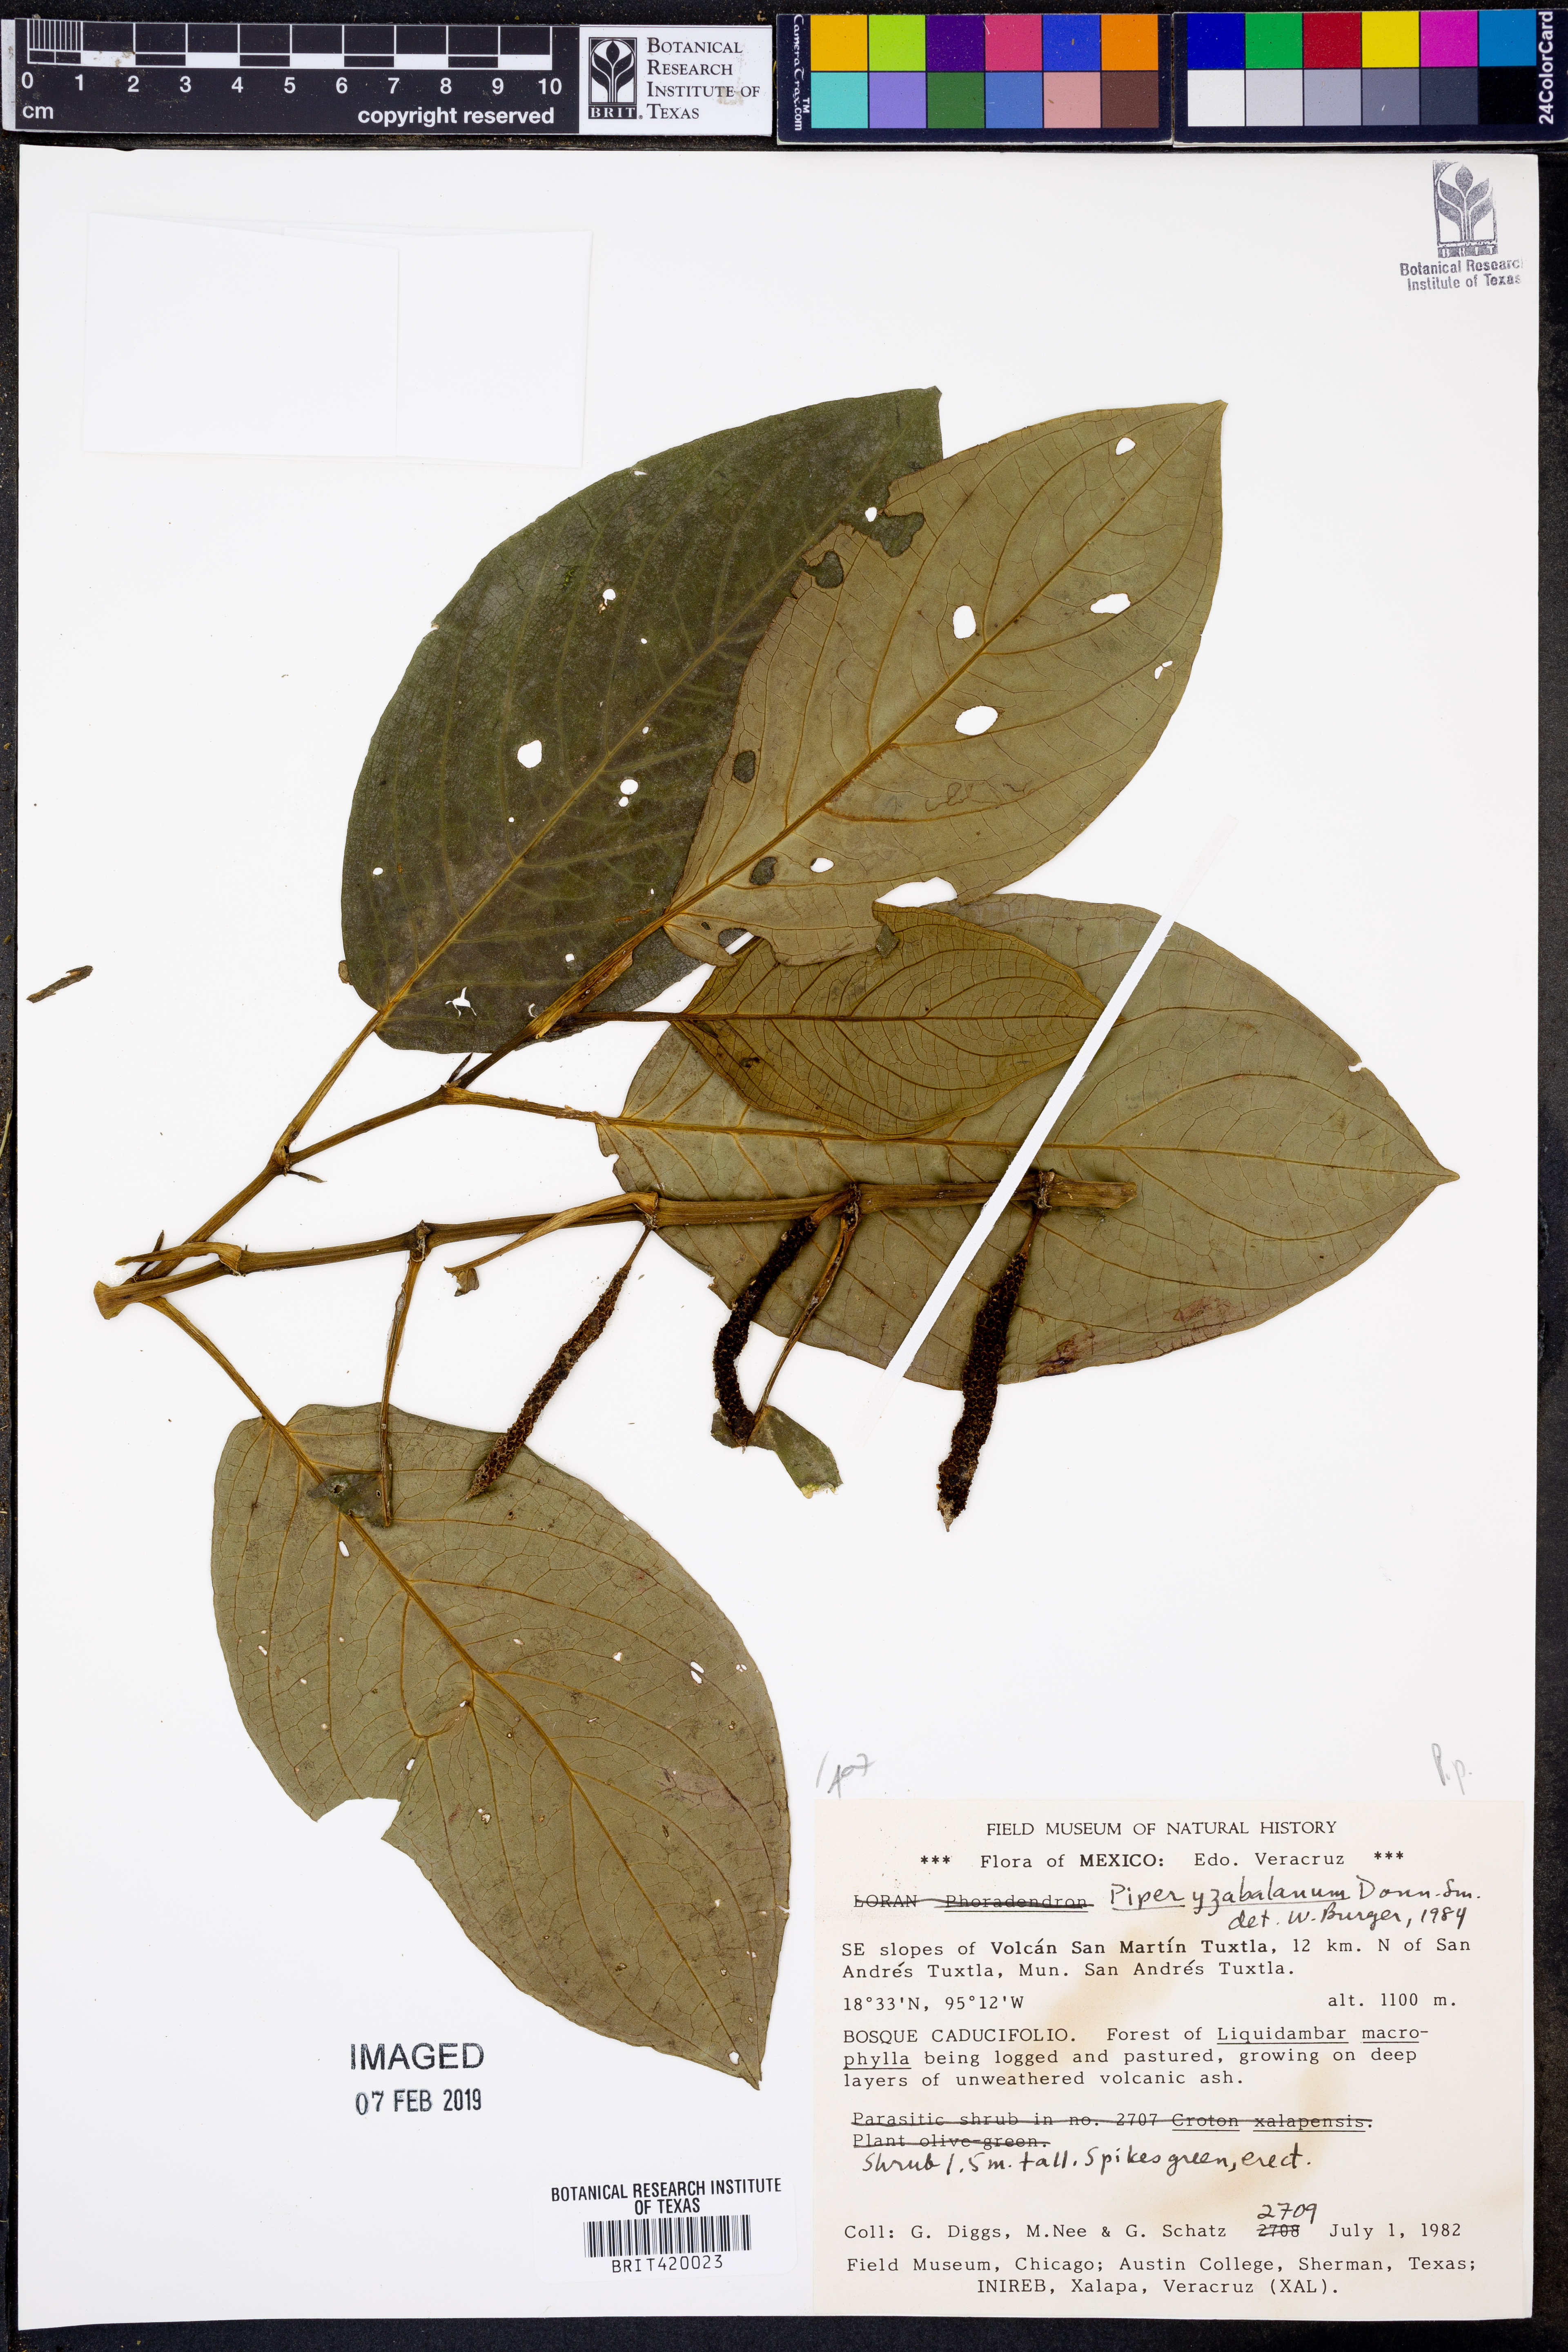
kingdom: Plantae
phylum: Tracheophyta
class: Magnoliopsida
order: Piperales
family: Piperaceae
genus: Piper
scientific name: Piper yzabalanum
